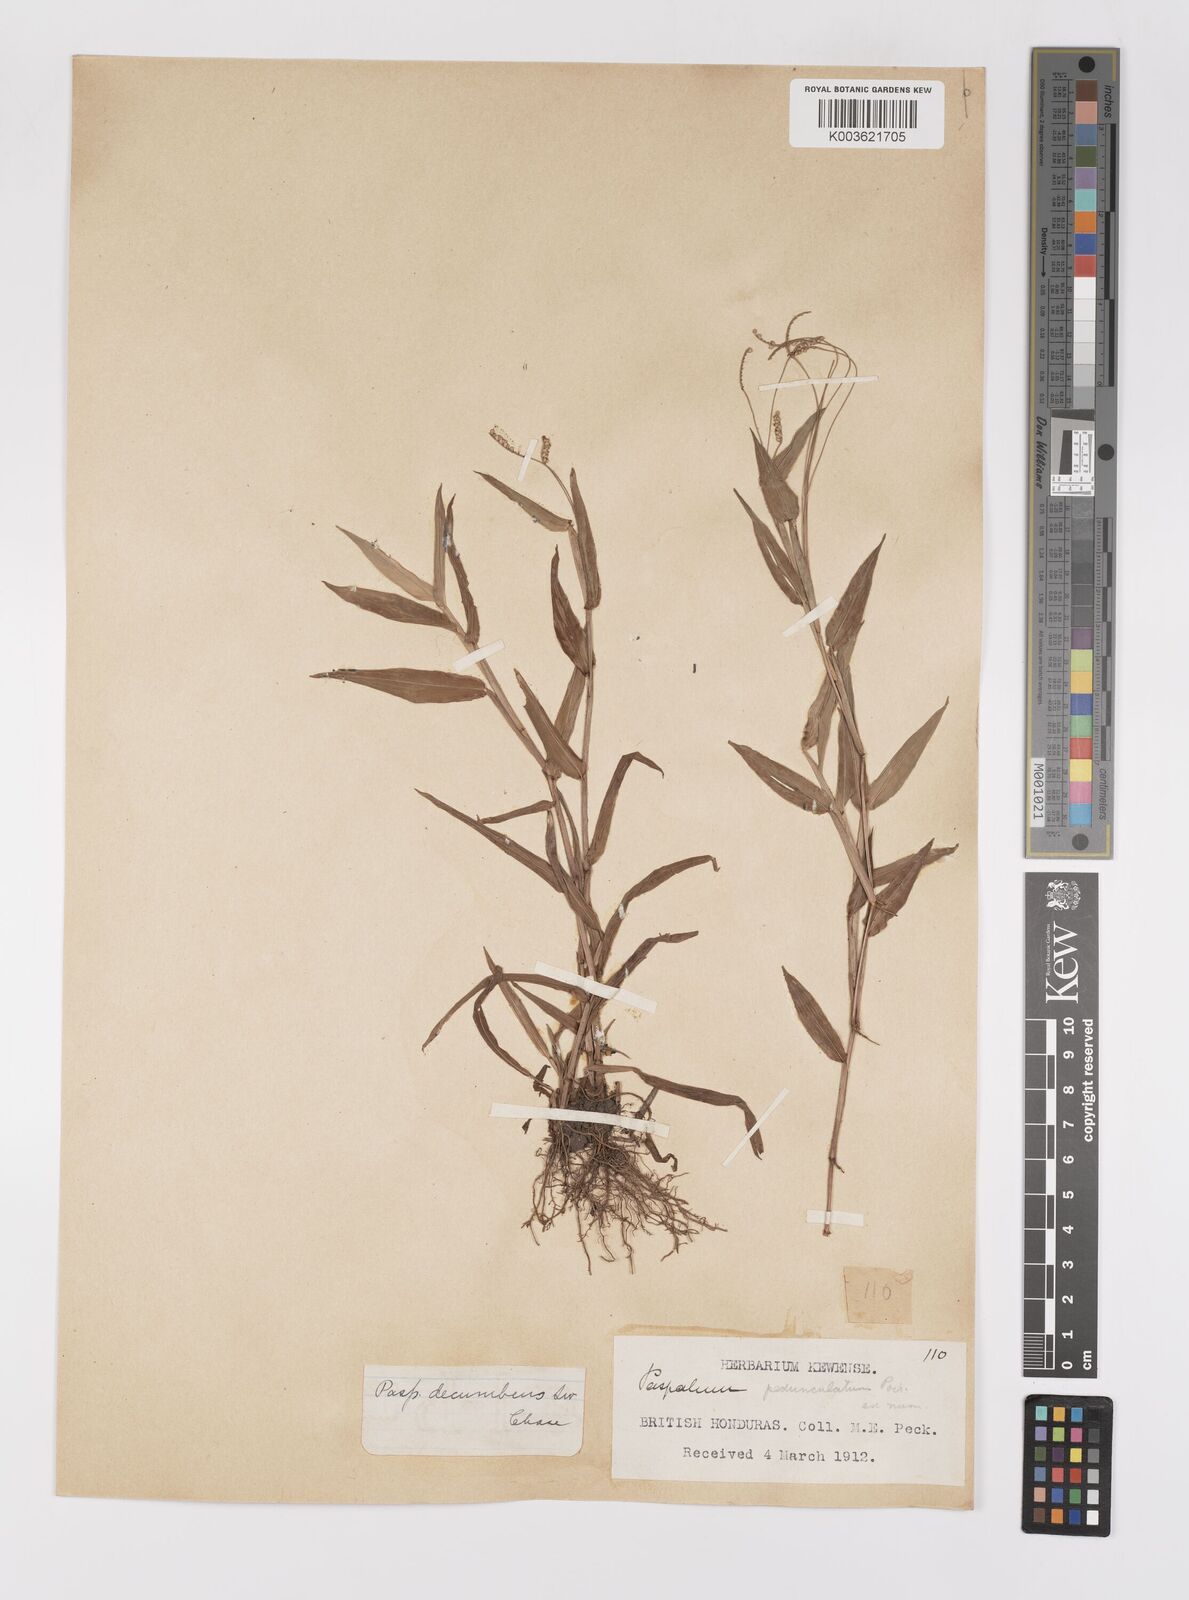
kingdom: Plantae
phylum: Tracheophyta
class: Liliopsida
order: Poales
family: Poaceae
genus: Paspalum
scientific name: Paspalum
